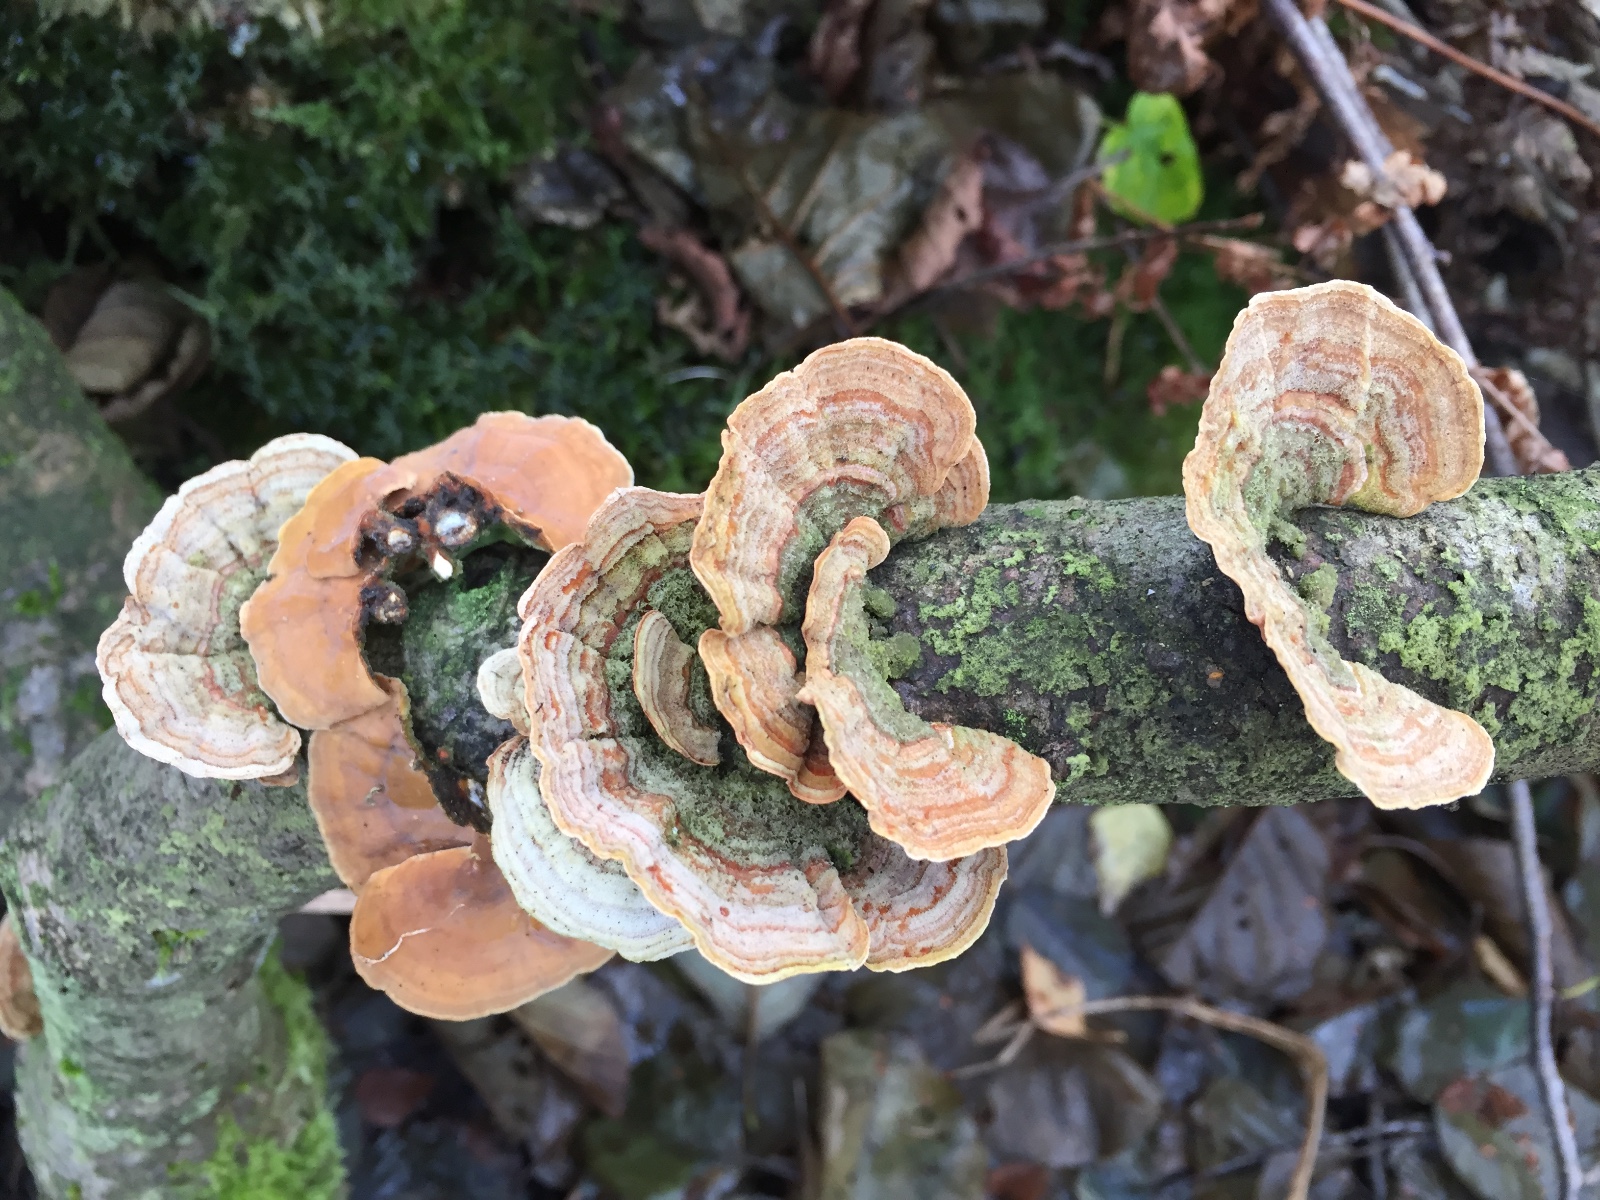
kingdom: Fungi
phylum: Basidiomycota
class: Agaricomycetes
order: Russulales
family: Stereaceae
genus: Stereum
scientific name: Stereum subtomentosum
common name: smuk lædersvamp
